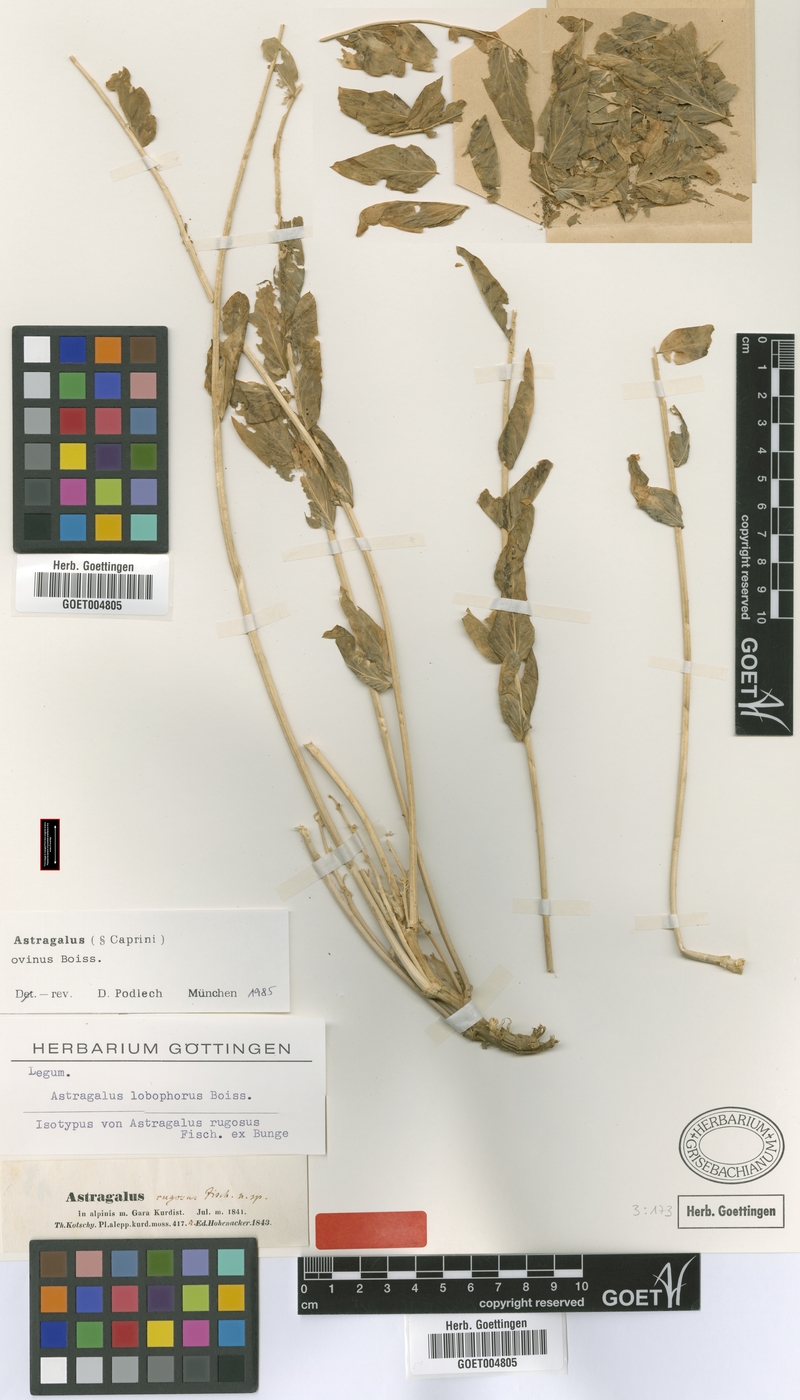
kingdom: Plantae
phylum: Tracheophyta
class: Magnoliopsida
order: Fabales
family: Fabaceae
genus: Astragalus
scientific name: Astragalus ovinus
